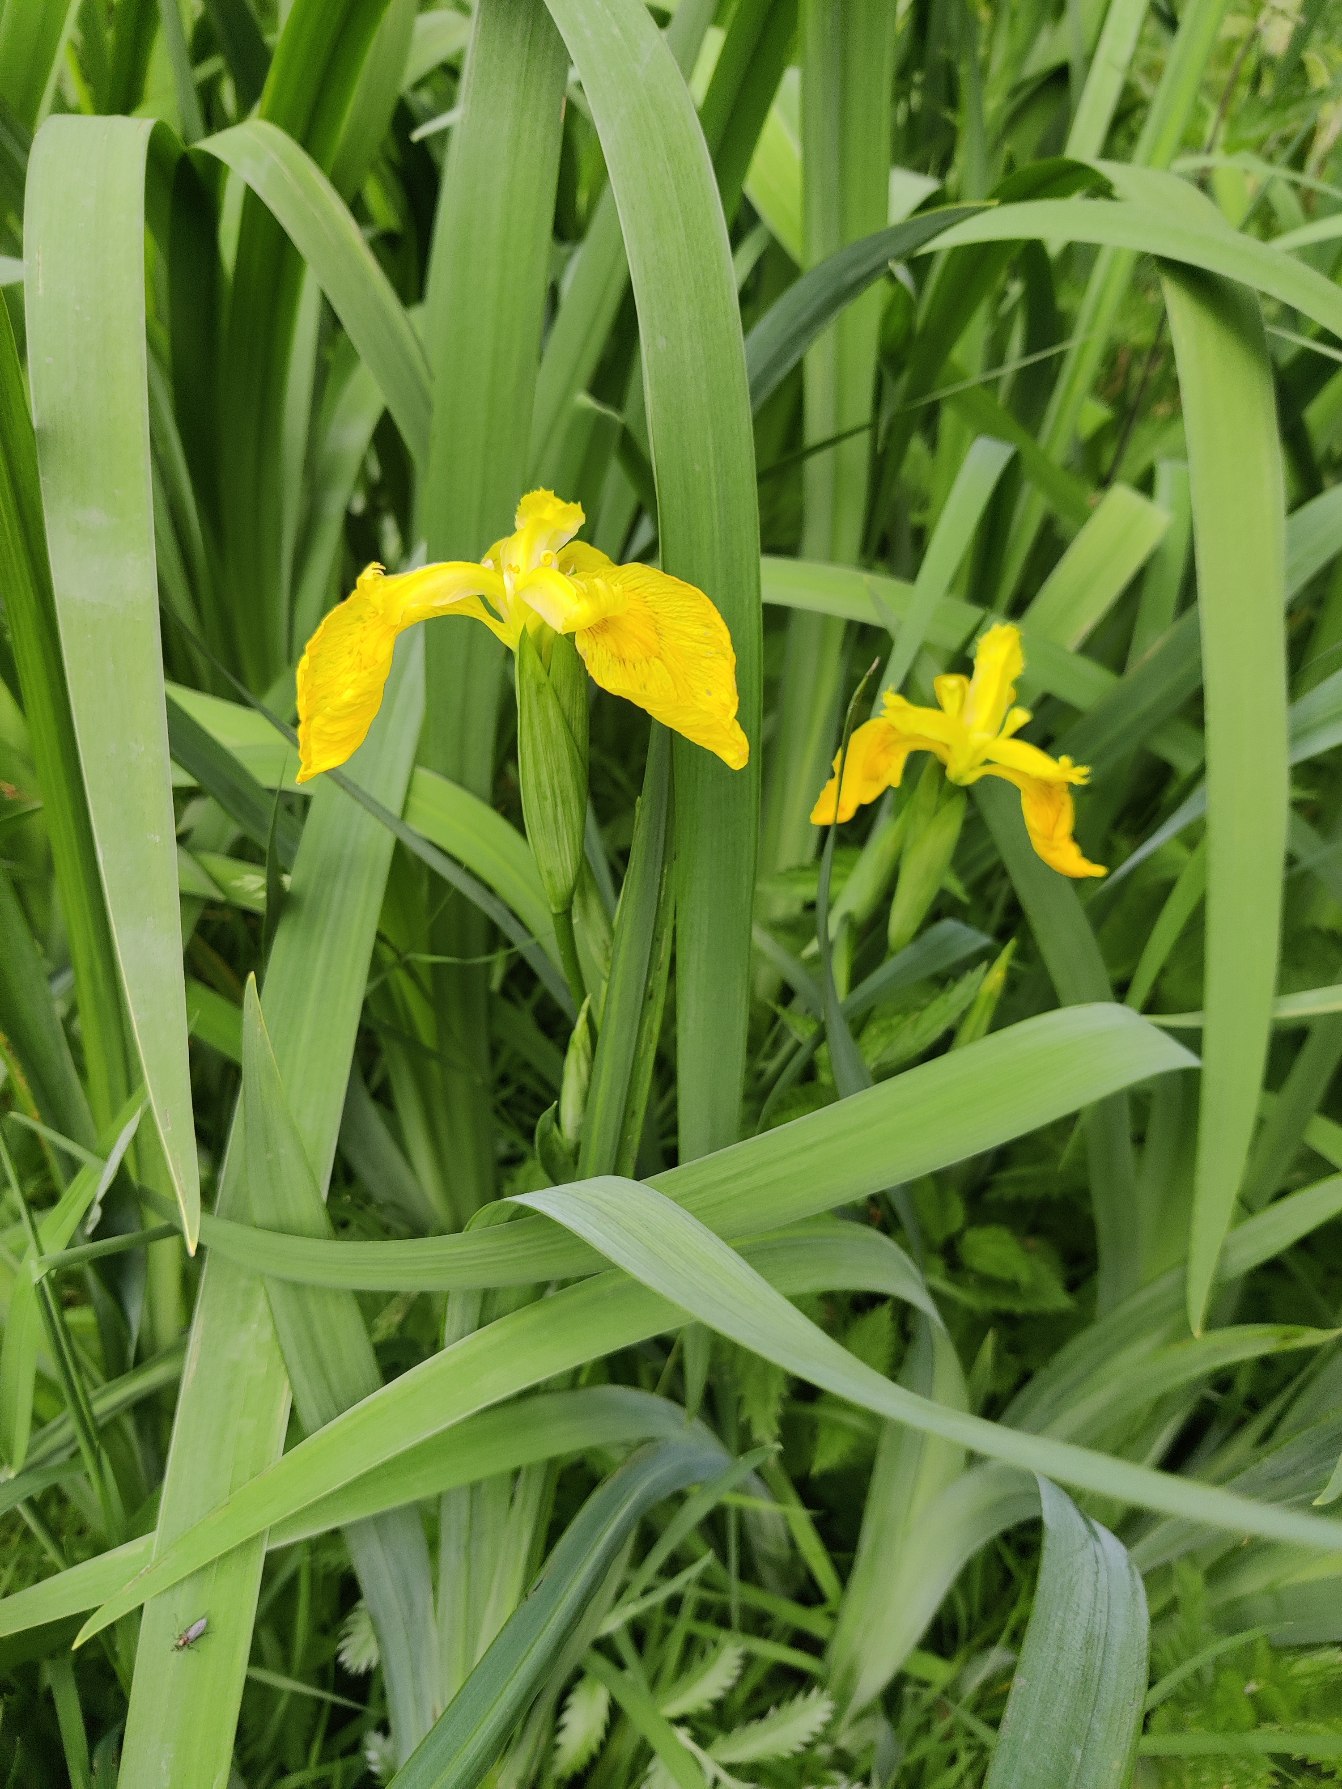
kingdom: Plantae
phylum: Tracheophyta
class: Liliopsida
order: Asparagales
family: Iridaceae
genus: Iris
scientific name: Iris pseudacorus
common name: Gul iris
